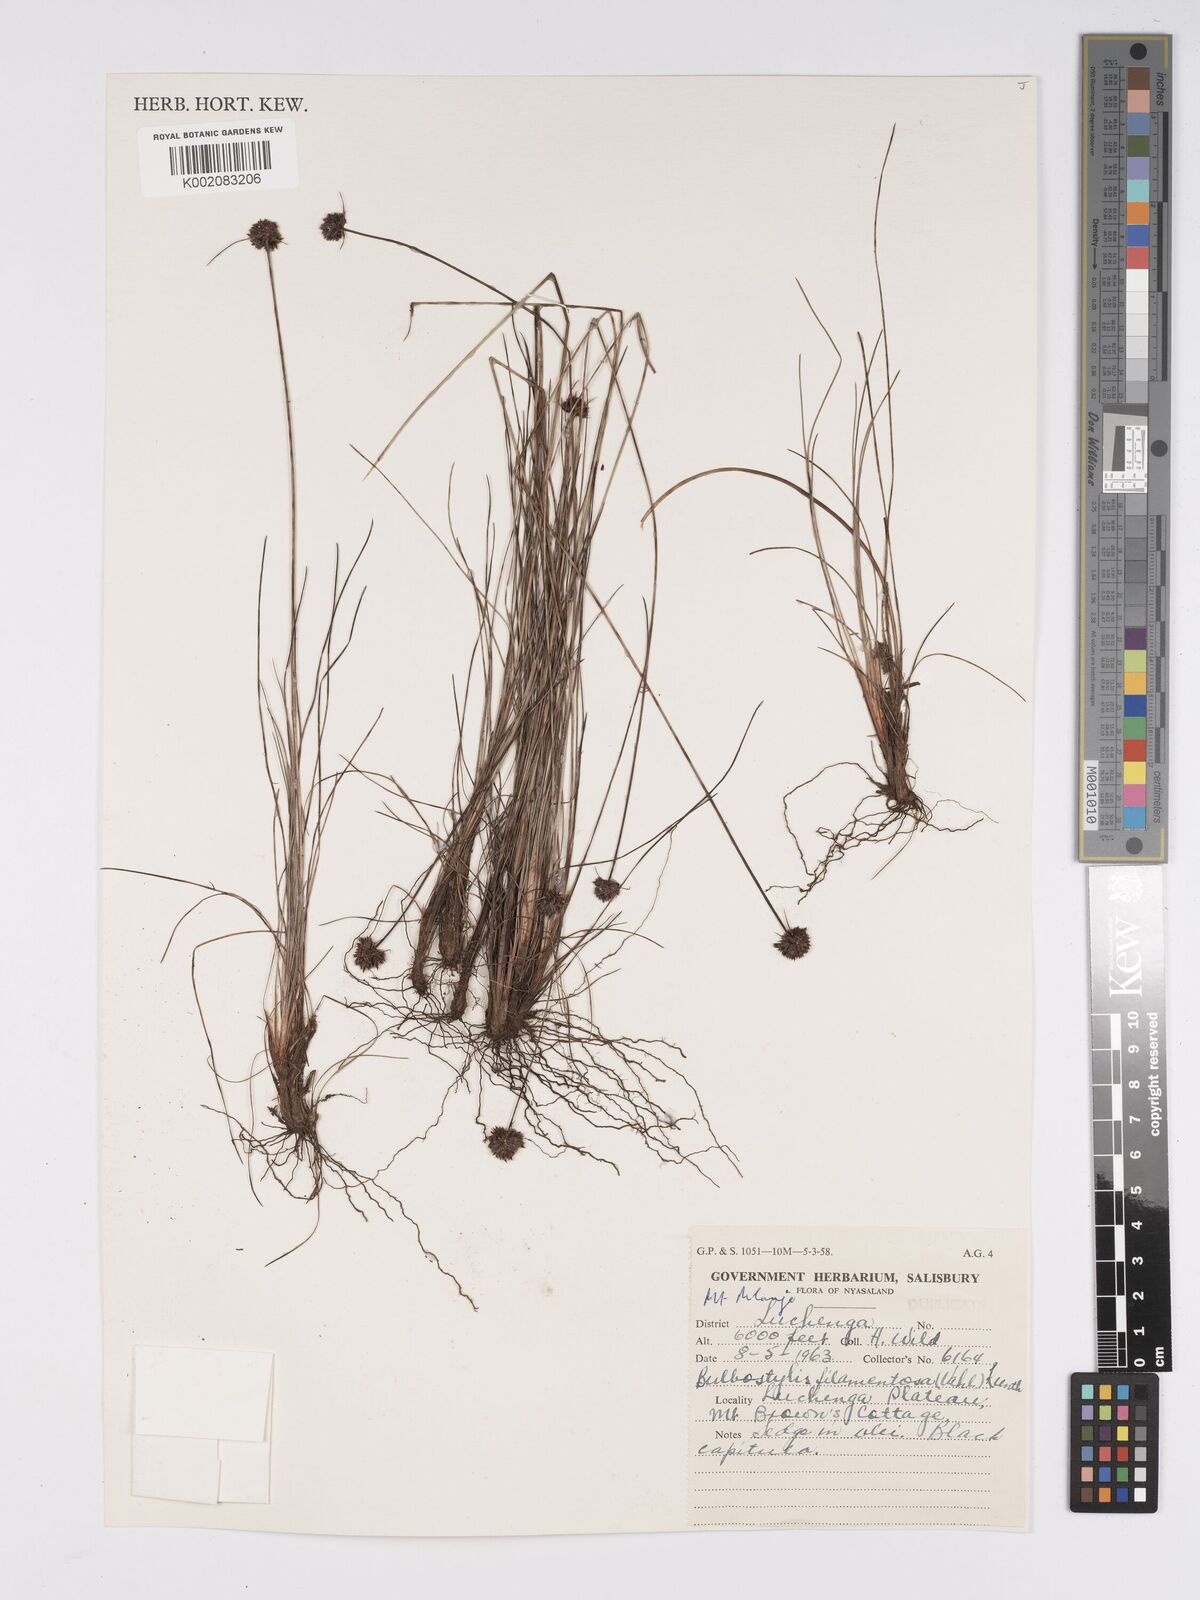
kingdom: Plantae
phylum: Tracheophyta
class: Liliopsida
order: Poales
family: Cyperaceae
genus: Bulbostylis
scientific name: Bulbostylis filamentosa
